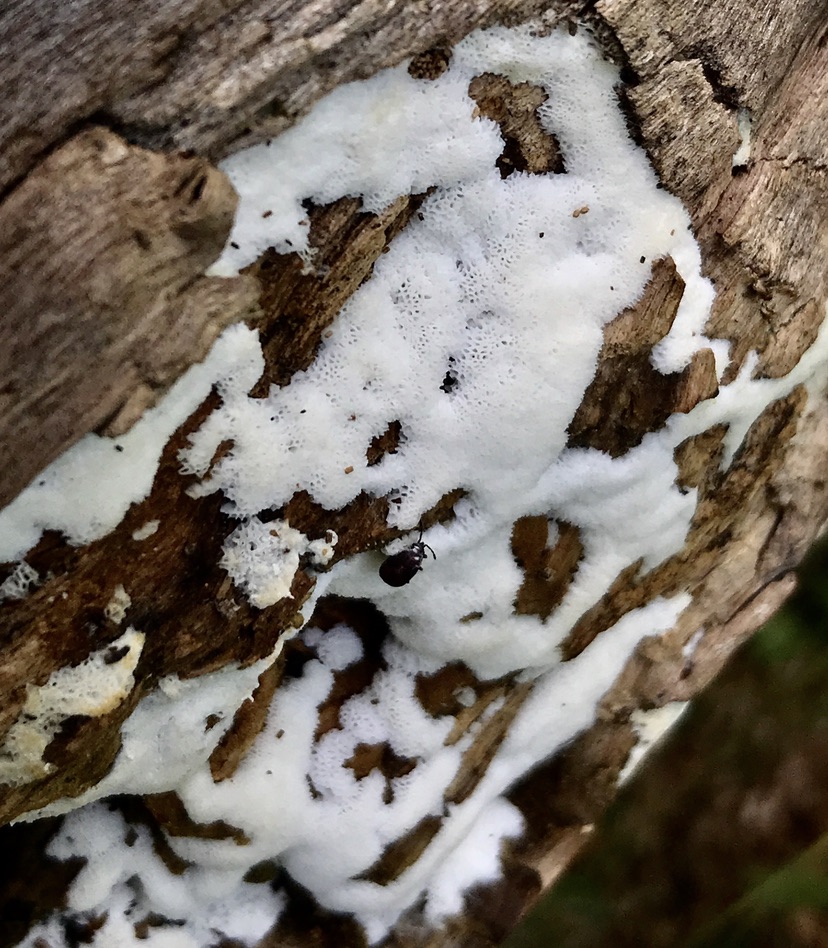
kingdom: Protozoa
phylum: Mycetozoa
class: Protosteliomycetes
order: Ceratiomyxales
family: Ceratiomyxaceae
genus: Ceratiomyxa
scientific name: Ceratiomyxa fruticulosa
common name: Honeycomb coral slime mold
